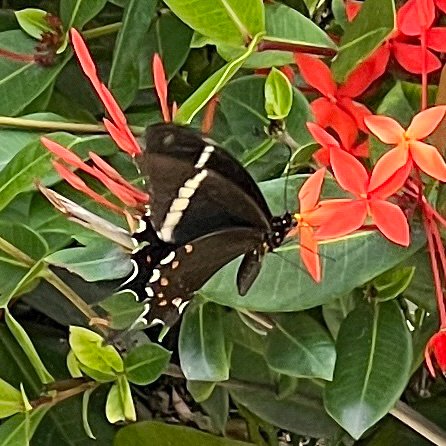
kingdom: Animalia
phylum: Arthropoda
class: Insecta
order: Lepidoptera
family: Papilionidae
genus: Papilio
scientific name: Papilio pelaus
